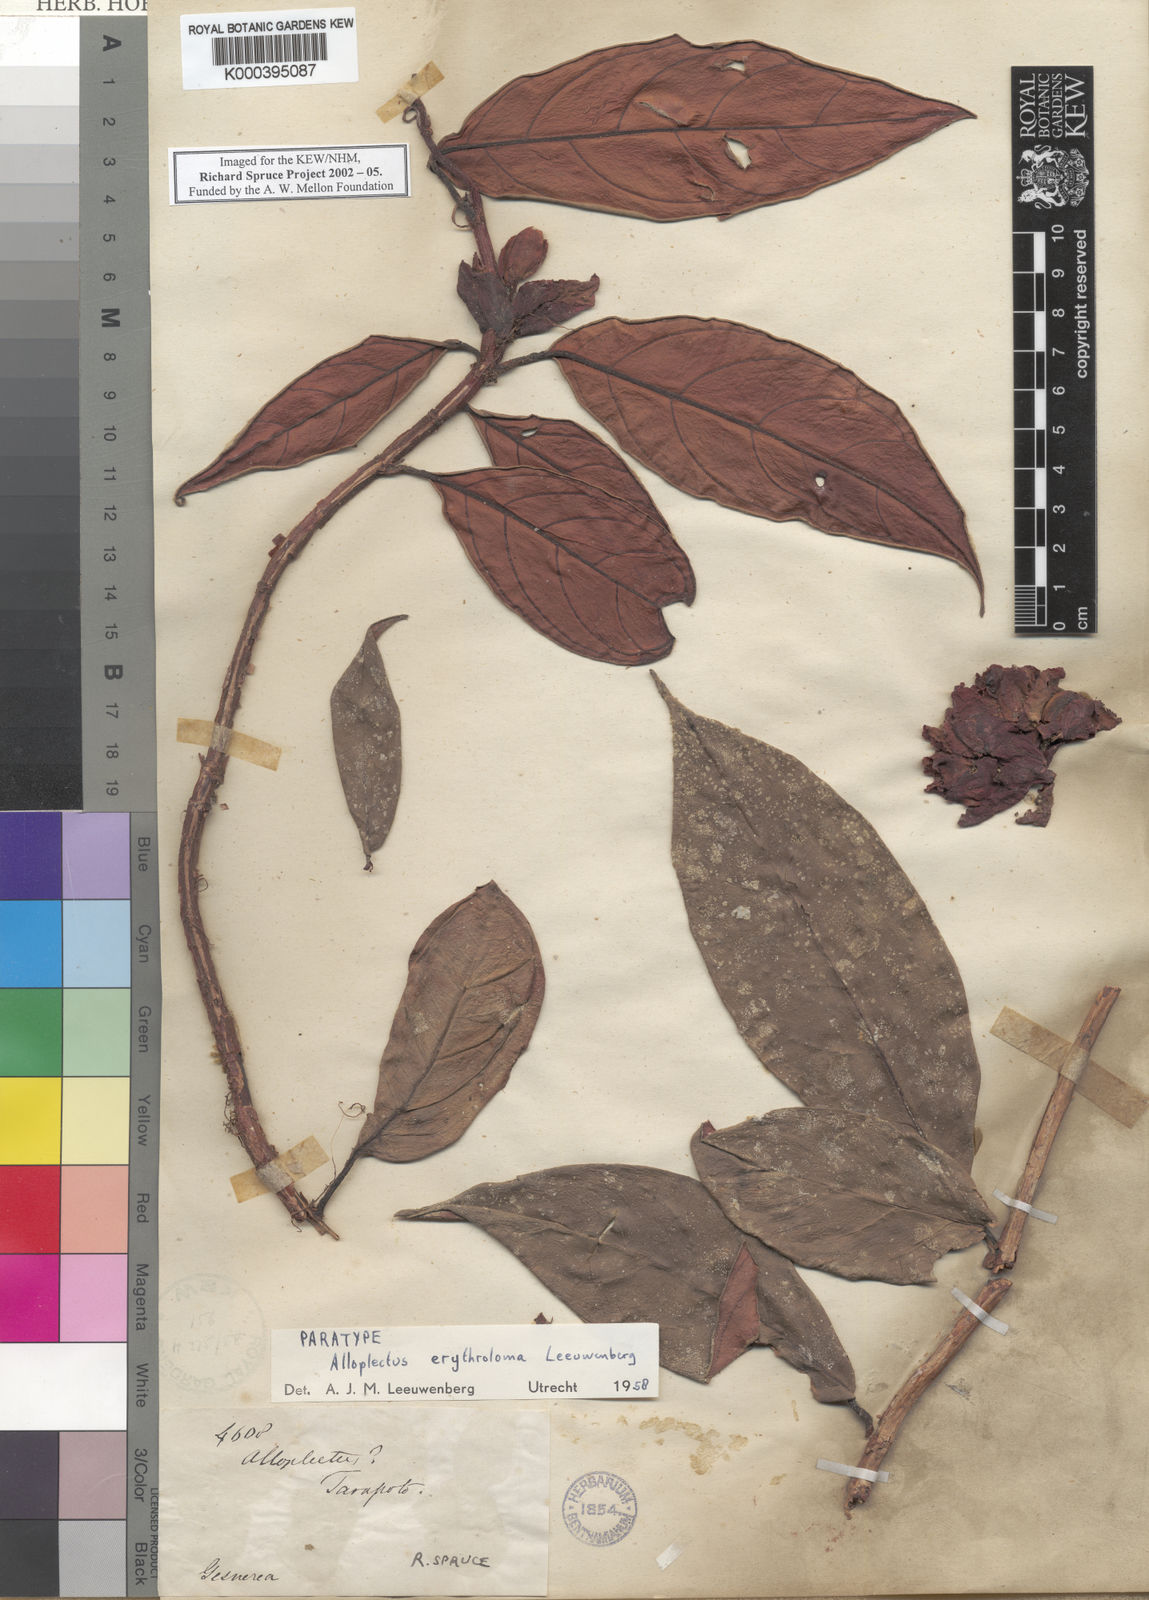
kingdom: Plantae
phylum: Tracheophyta
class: Magnoliopsida
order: Lamiales
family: Gesneriaceae
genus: Drymonia
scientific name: Drymonia erythroloma
